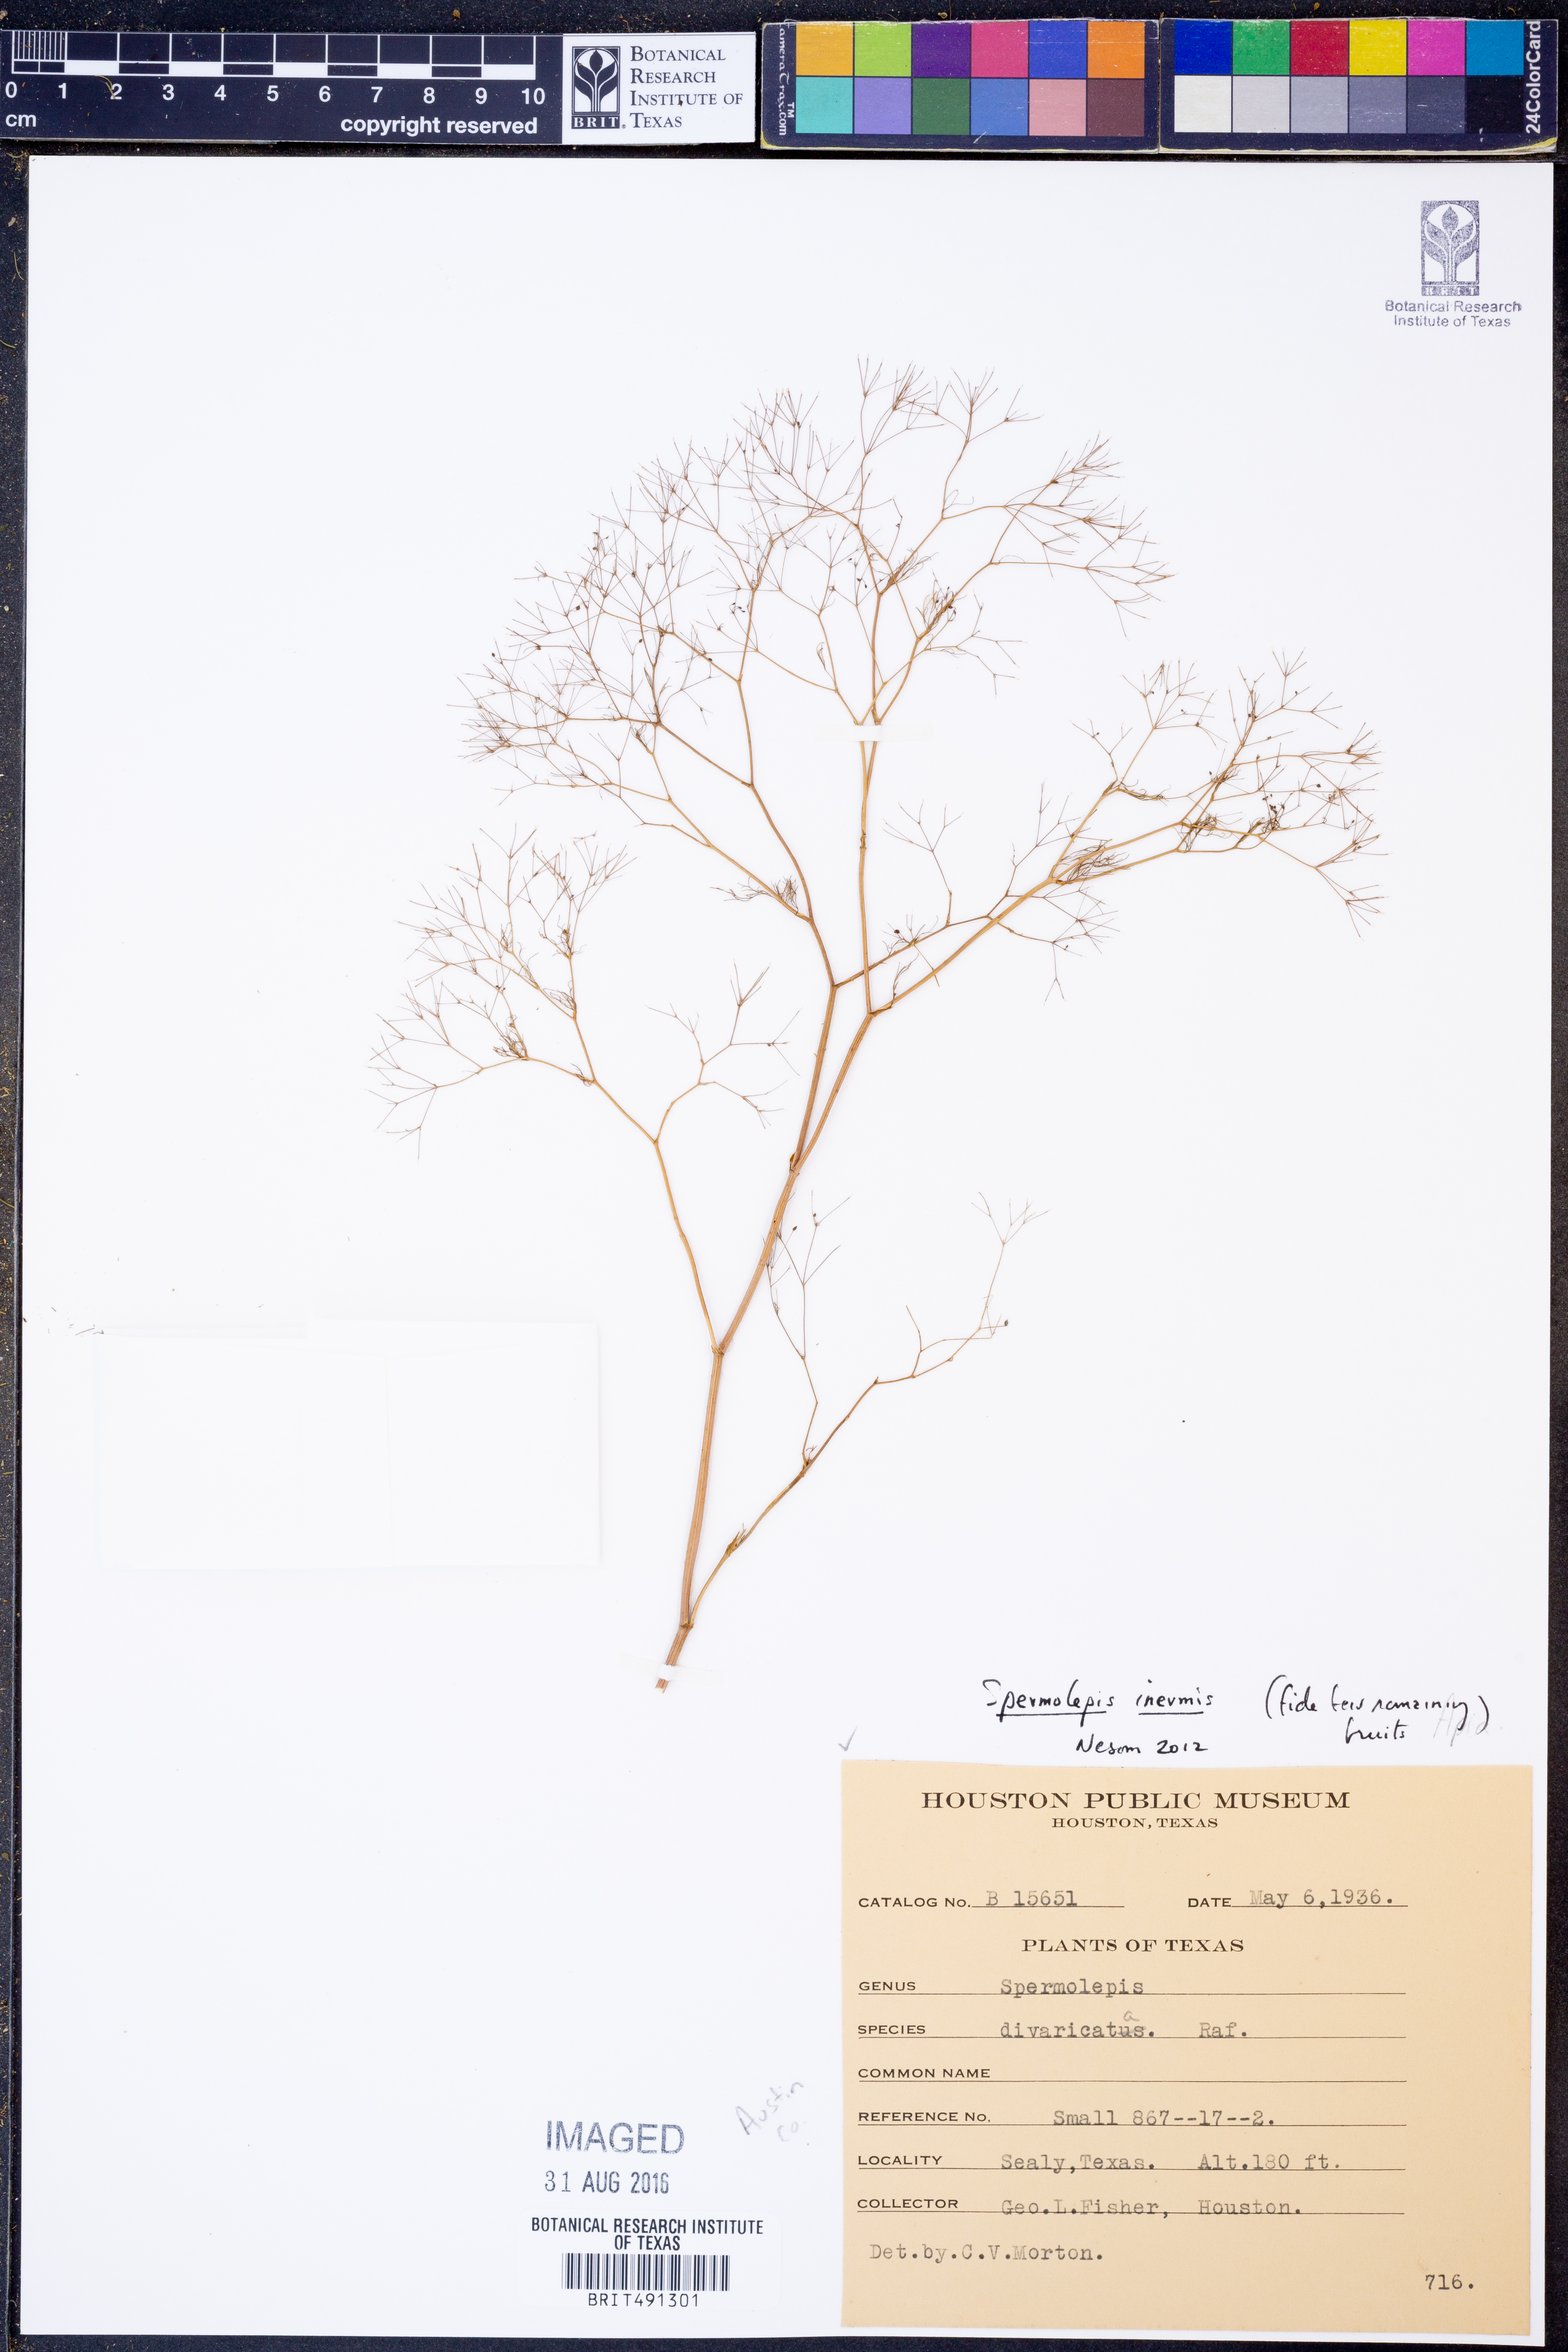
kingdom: Plantae
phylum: Tracheophyta
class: Magnoliopsida
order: Apiales
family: Apiaceae
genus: Spermolepis
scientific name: Spermolepis inermis
